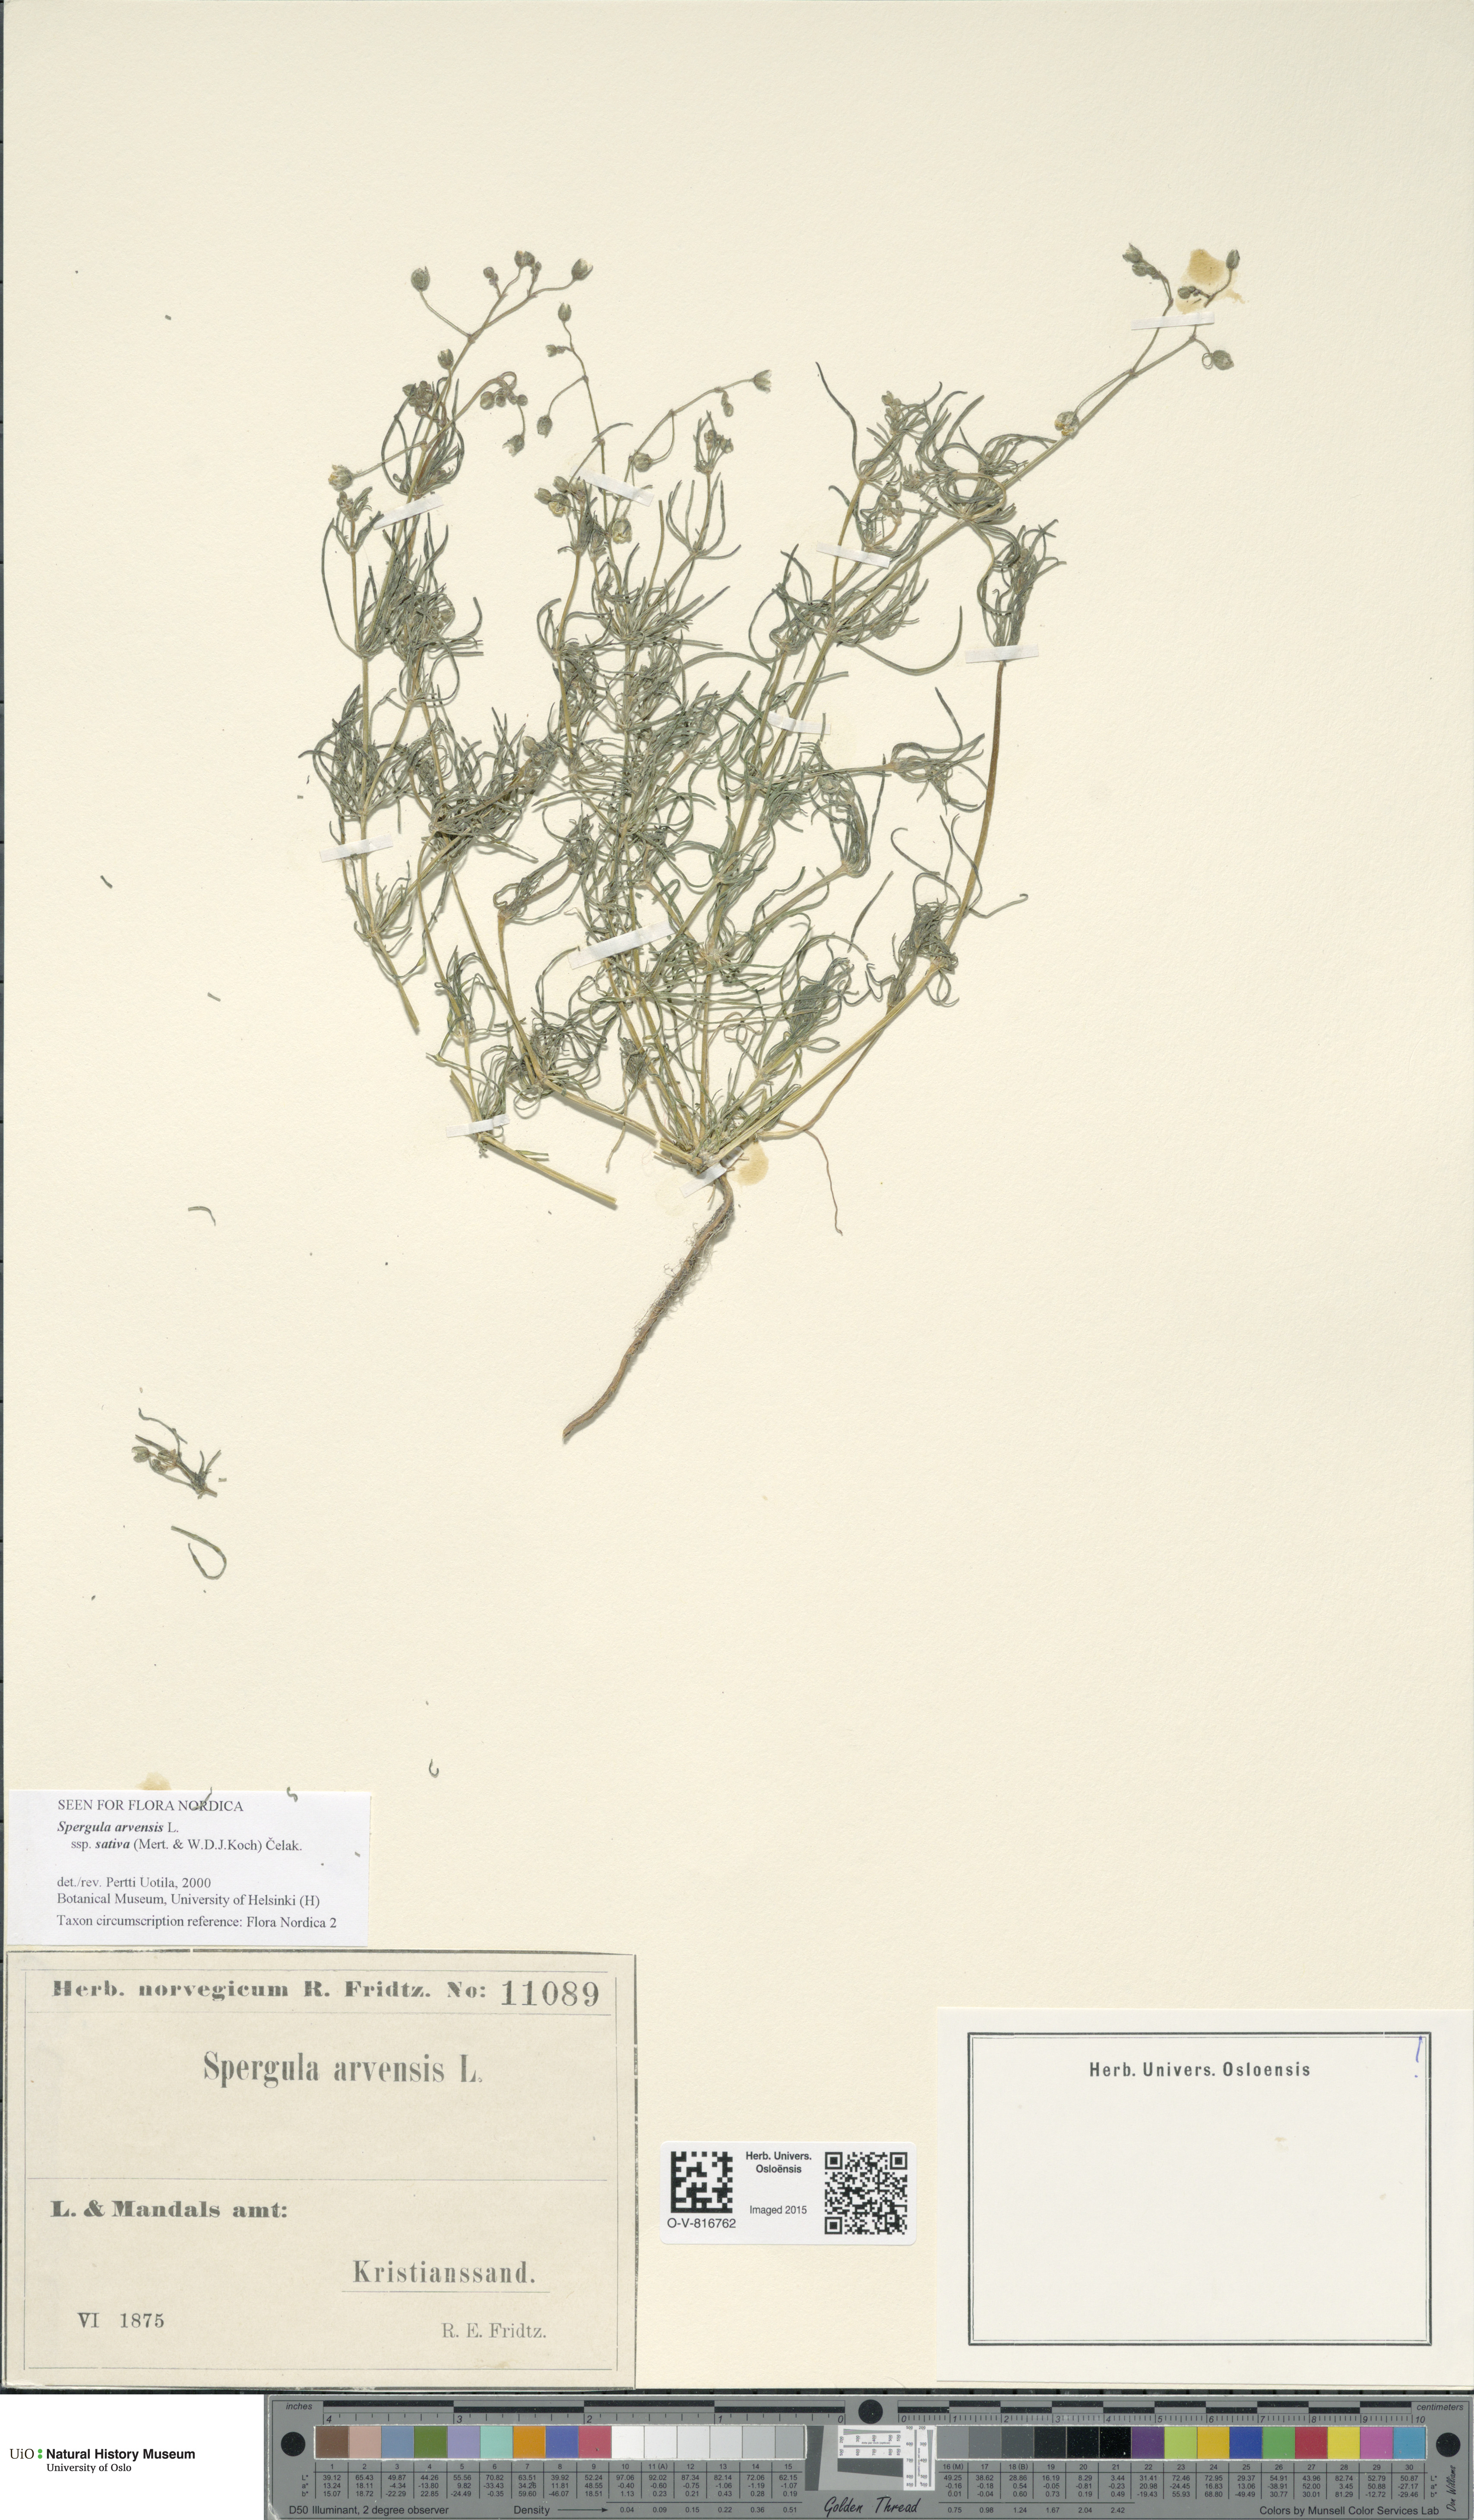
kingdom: Plantae
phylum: Tracheophyta
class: Magnoliopsida
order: Caryophyllales
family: Caryophyllaceae
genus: Spergula
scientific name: Spergula arvensis
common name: Corn spurrey
